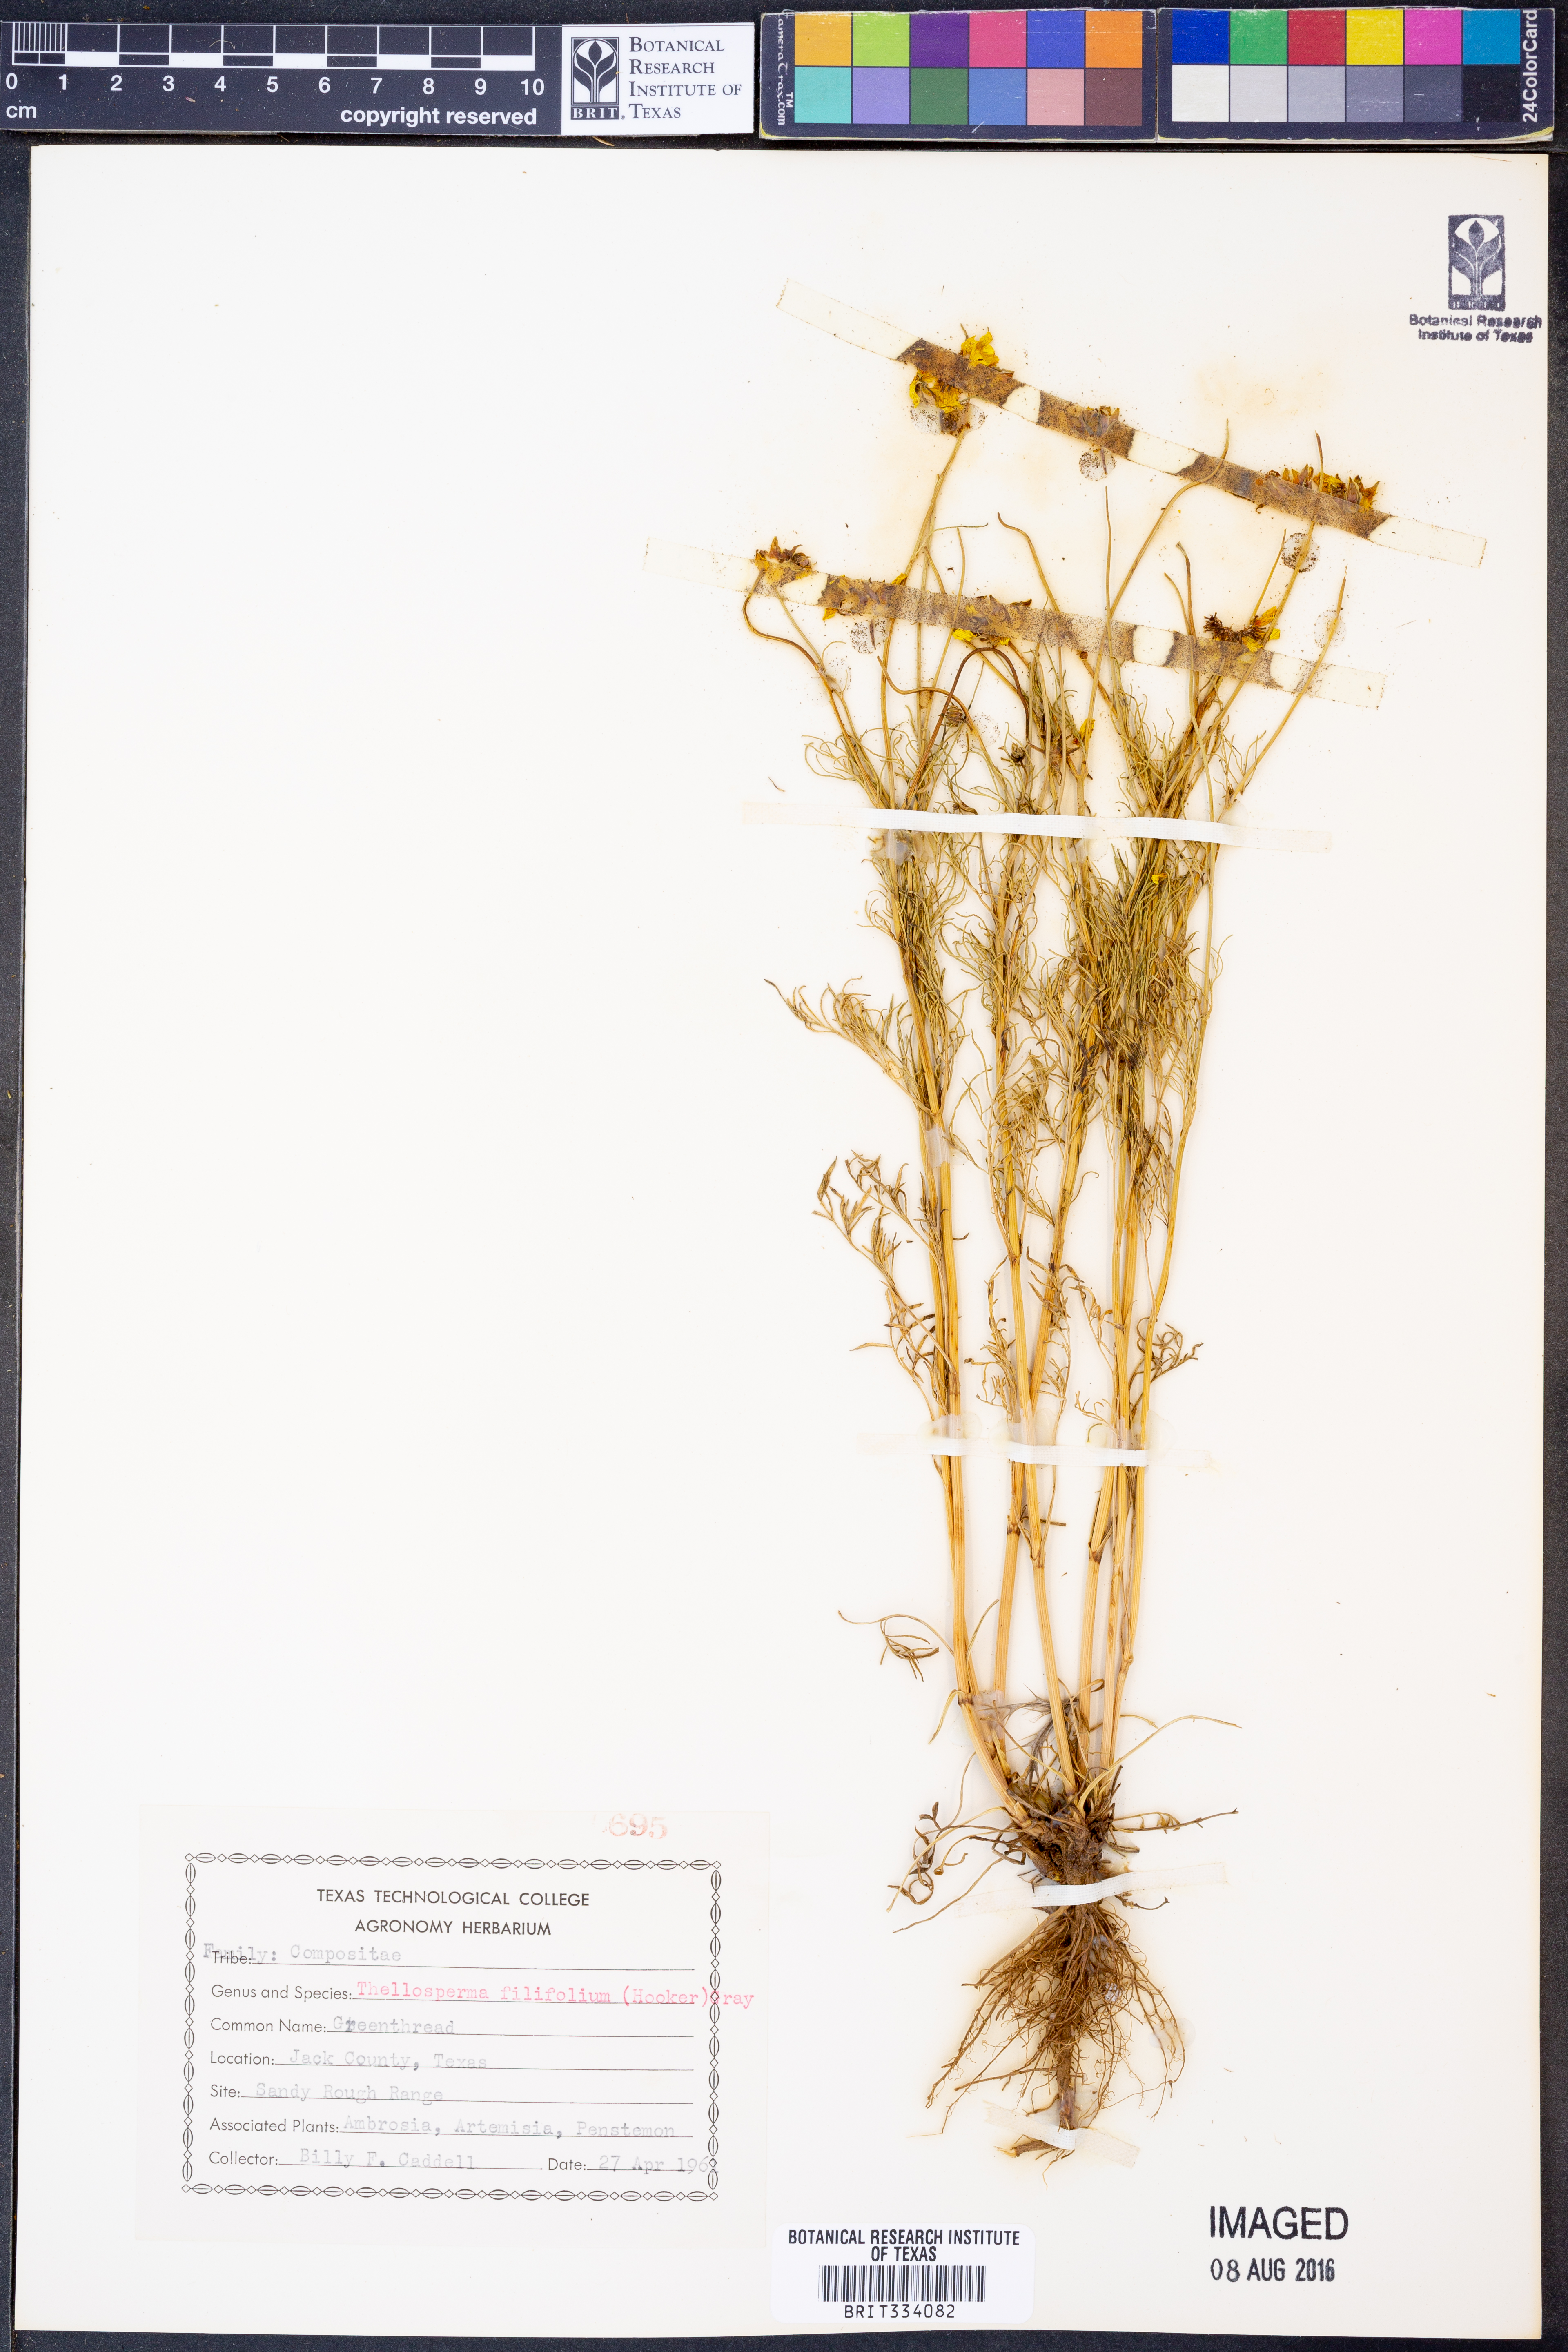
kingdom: Plantae
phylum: Tracheophyta
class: Magnoliopsida
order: Asterales
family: Asteraceae
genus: Thelesperma
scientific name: Thelesperma filifolium
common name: Stiff greenthread
